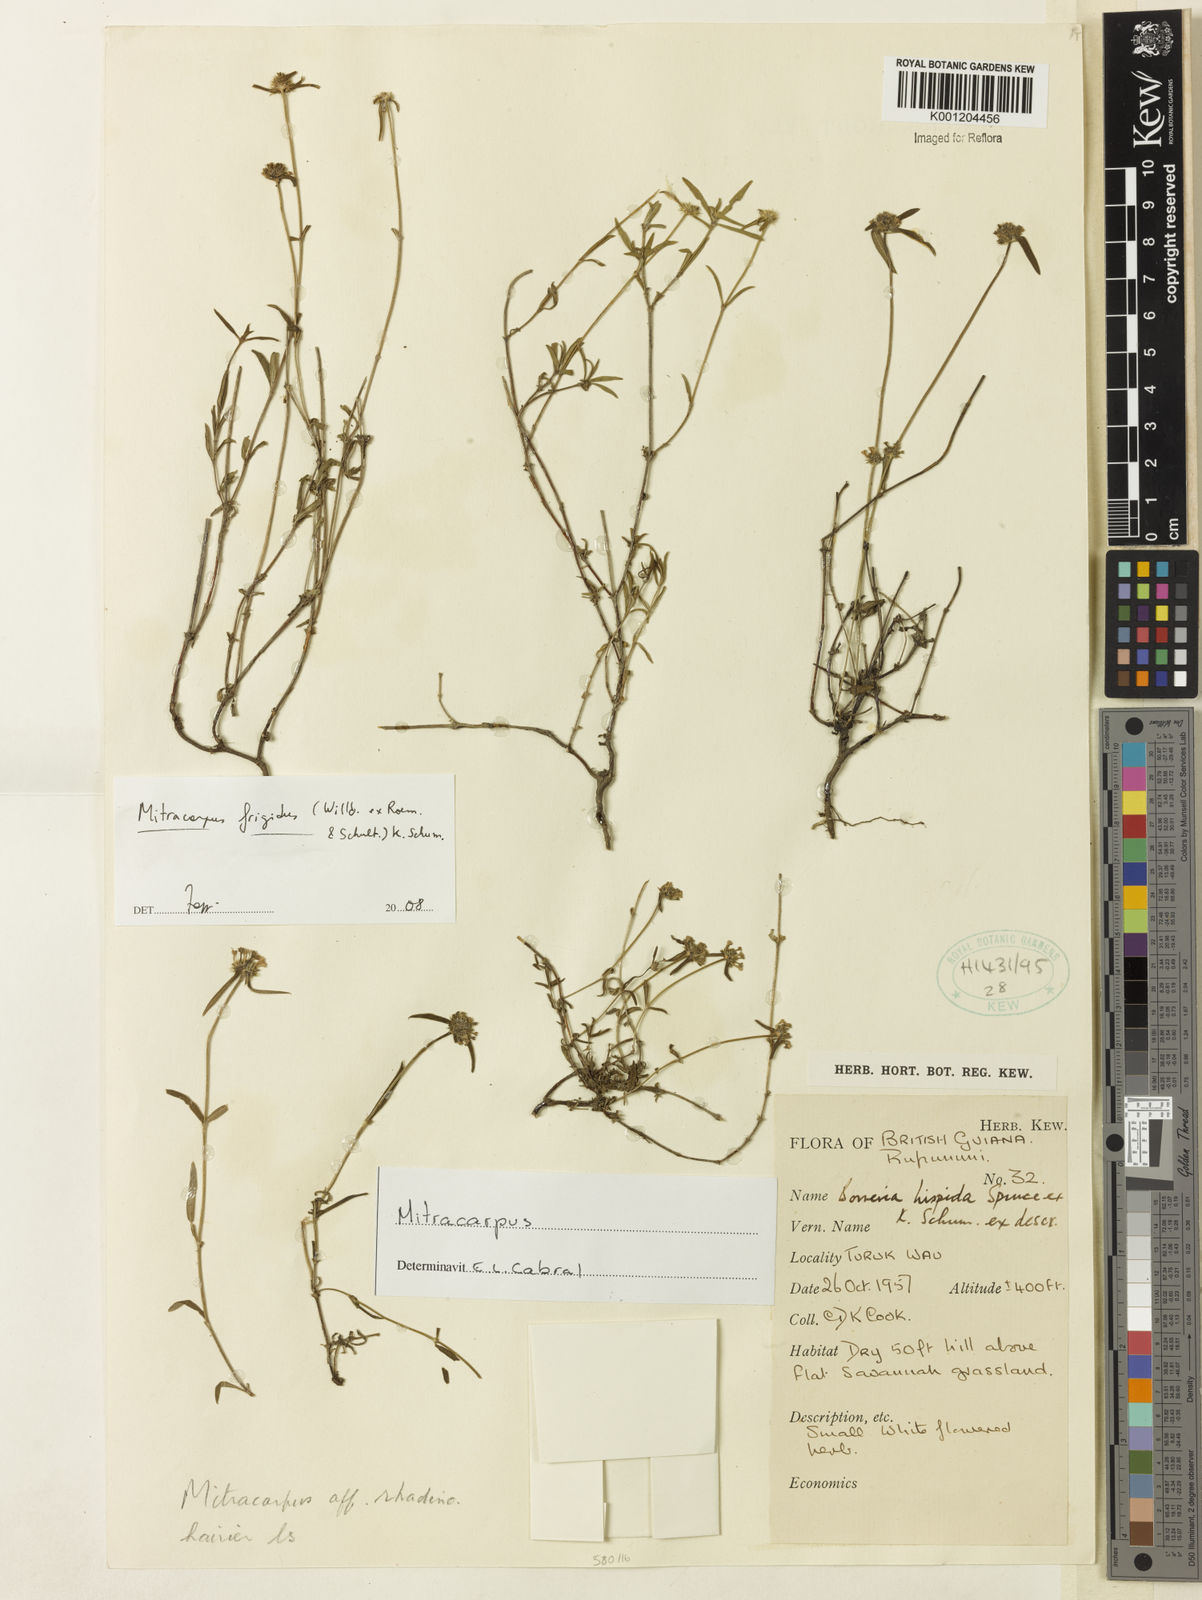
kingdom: Plantae
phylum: Tracheophyta
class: Magnoliopsida
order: Gentianales
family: Rubiaceae
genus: Mitracarpus
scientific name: Mitracarpus frigidus
